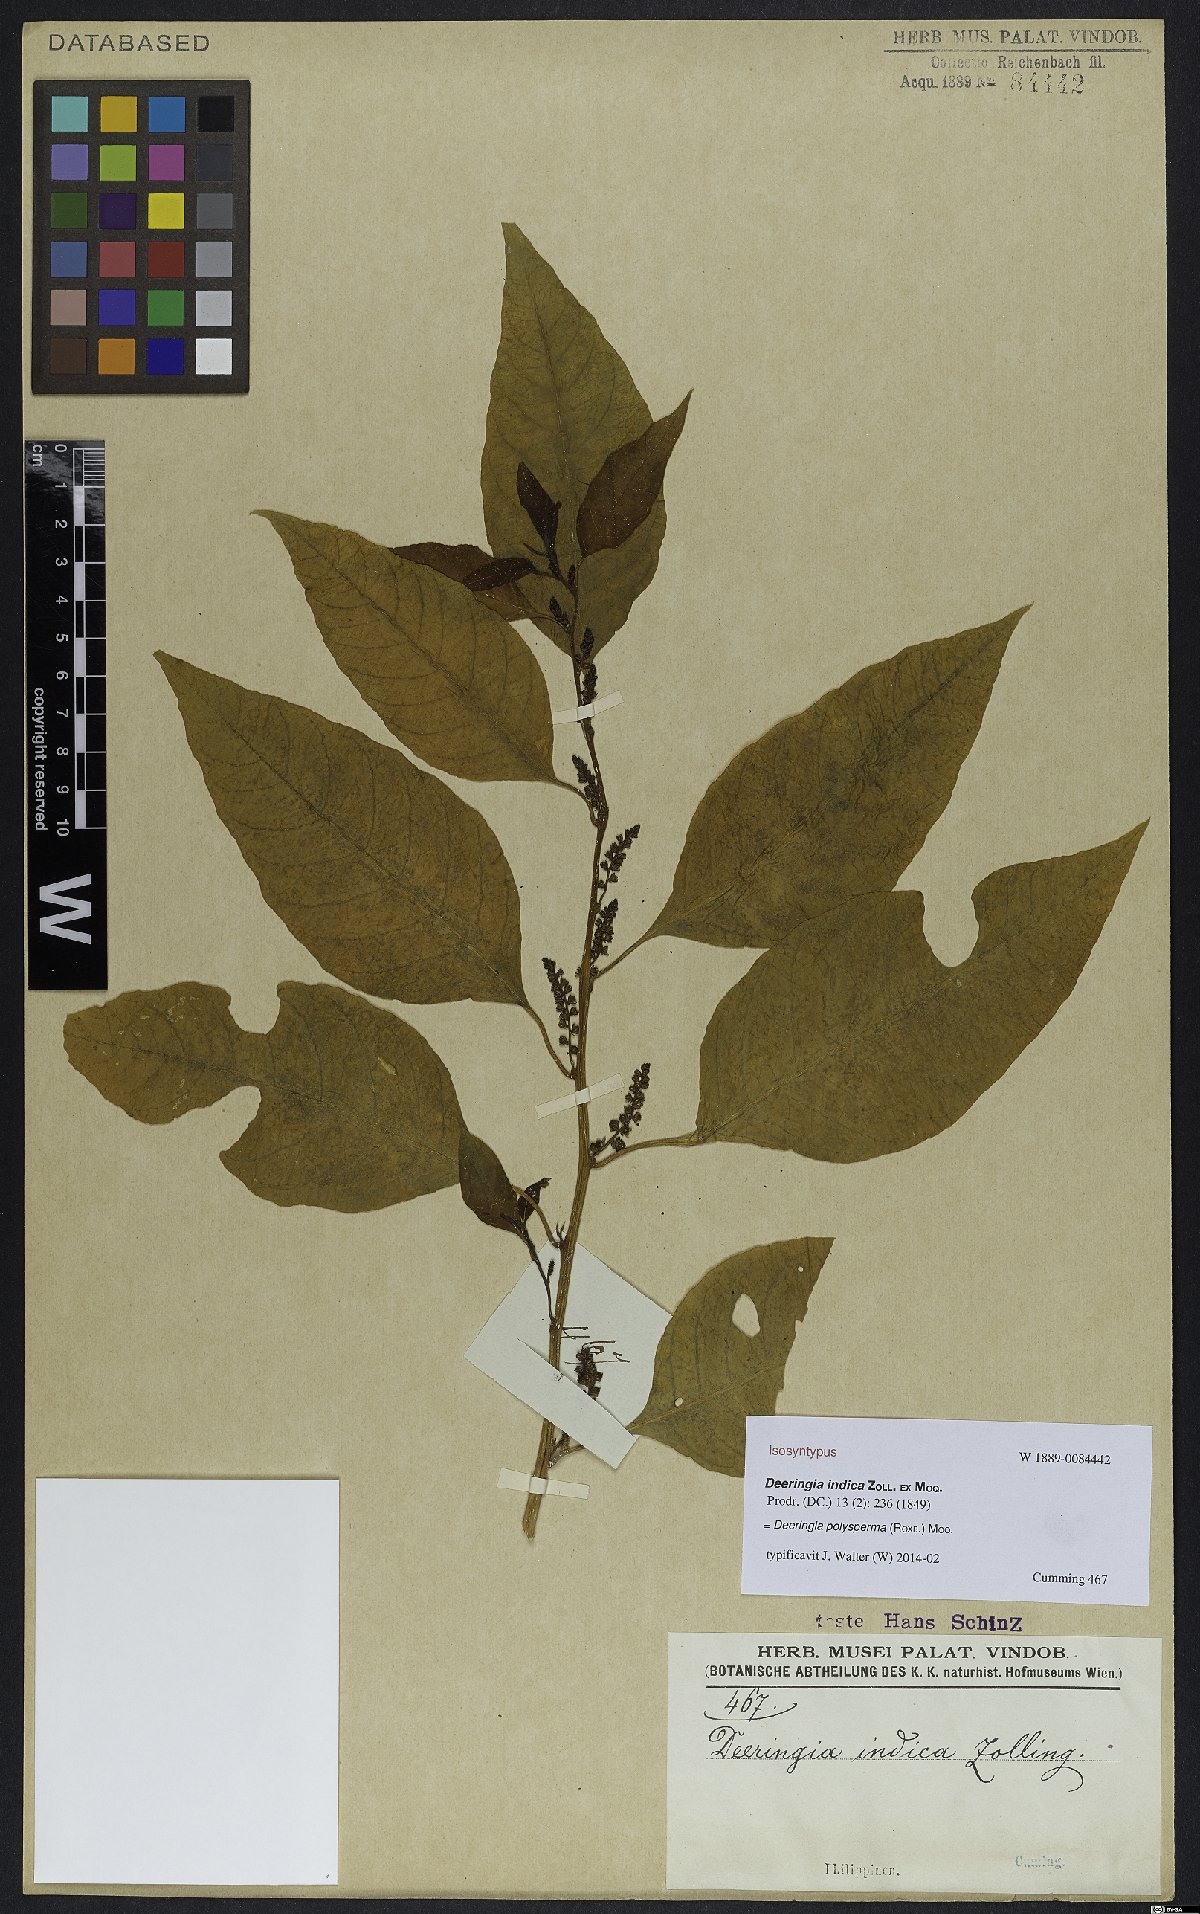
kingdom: Plantae
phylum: Tracheophyta
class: Magnoliopsida
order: Caryophyllales
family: Amaranthaceae
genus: Deeringia
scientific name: Deeringia polysperma
